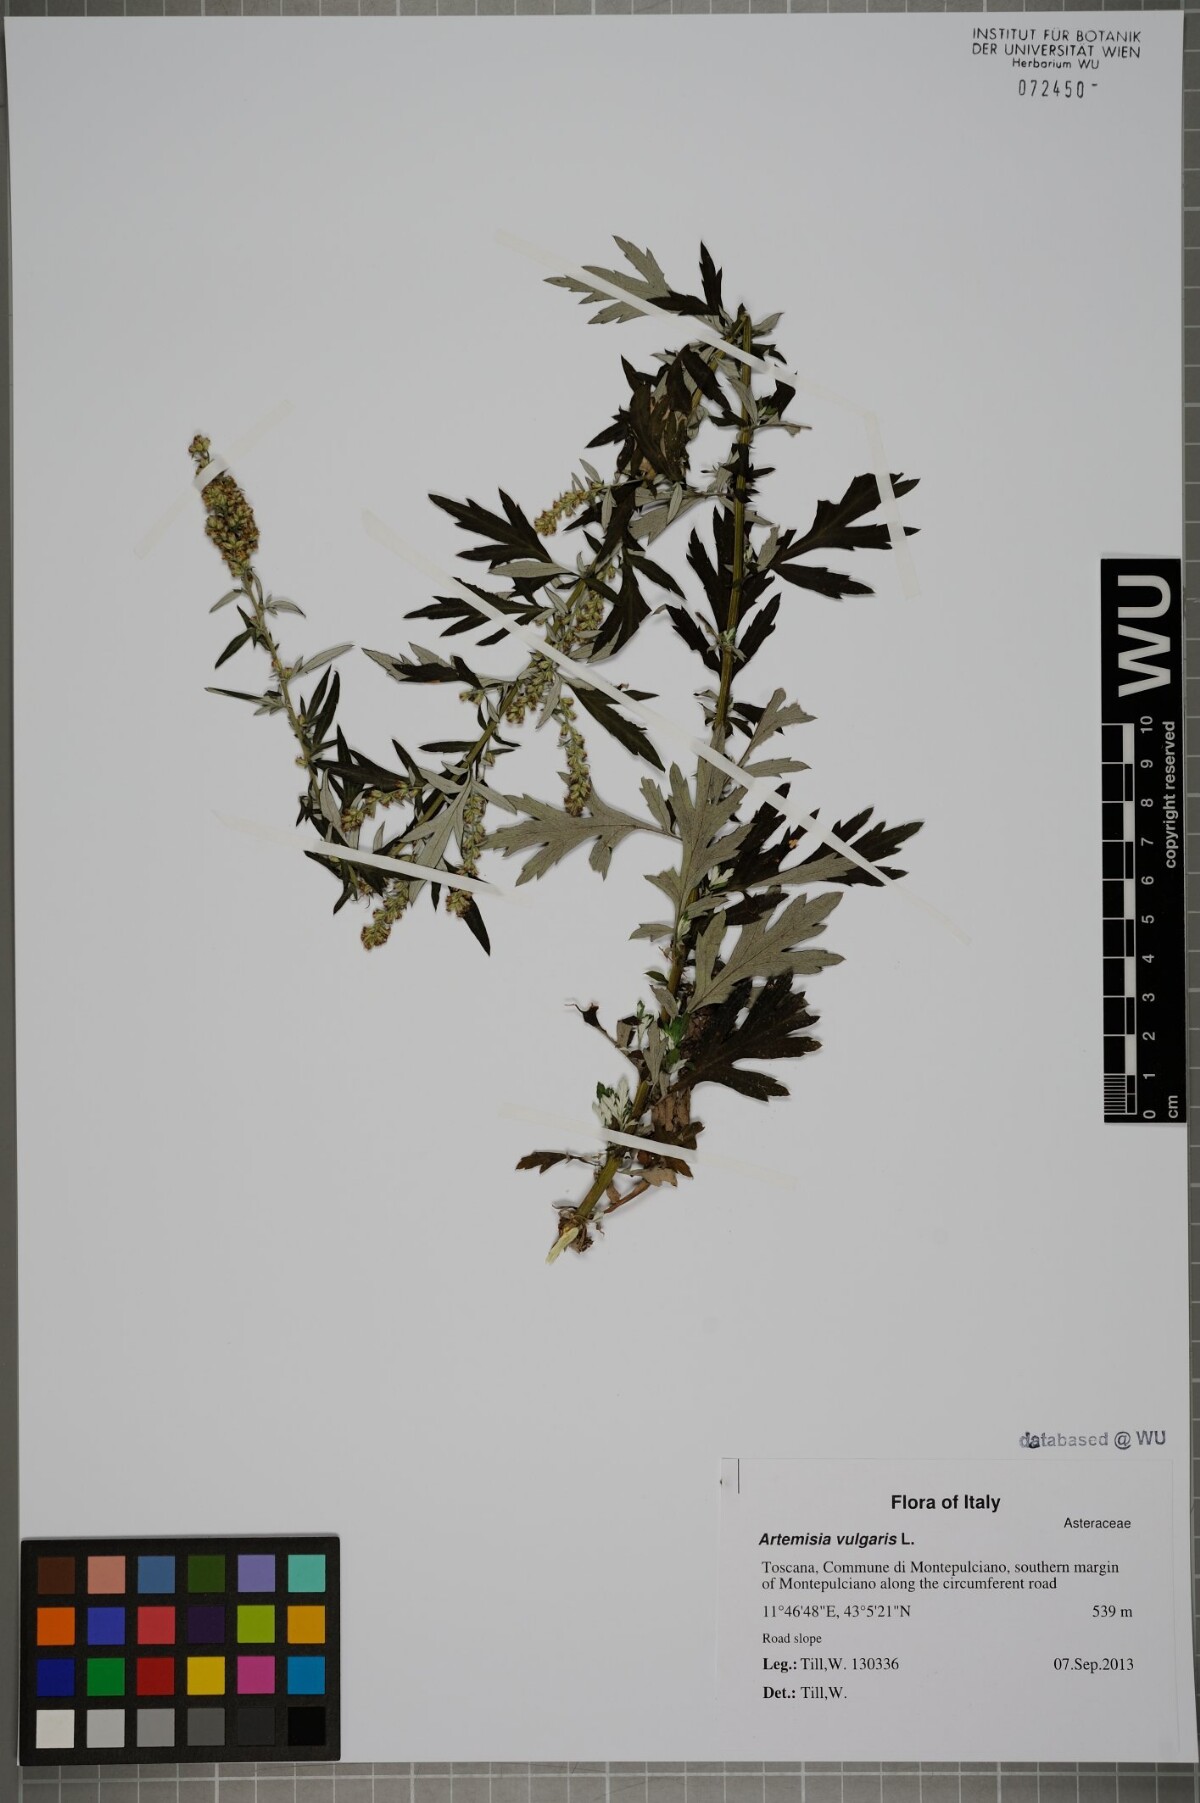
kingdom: Plantae
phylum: Tracheophyta
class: Magnoliopsida
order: Asterales
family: Asteraceae
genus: Artemisia
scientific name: Artemisia vulgaris
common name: Mugwort
